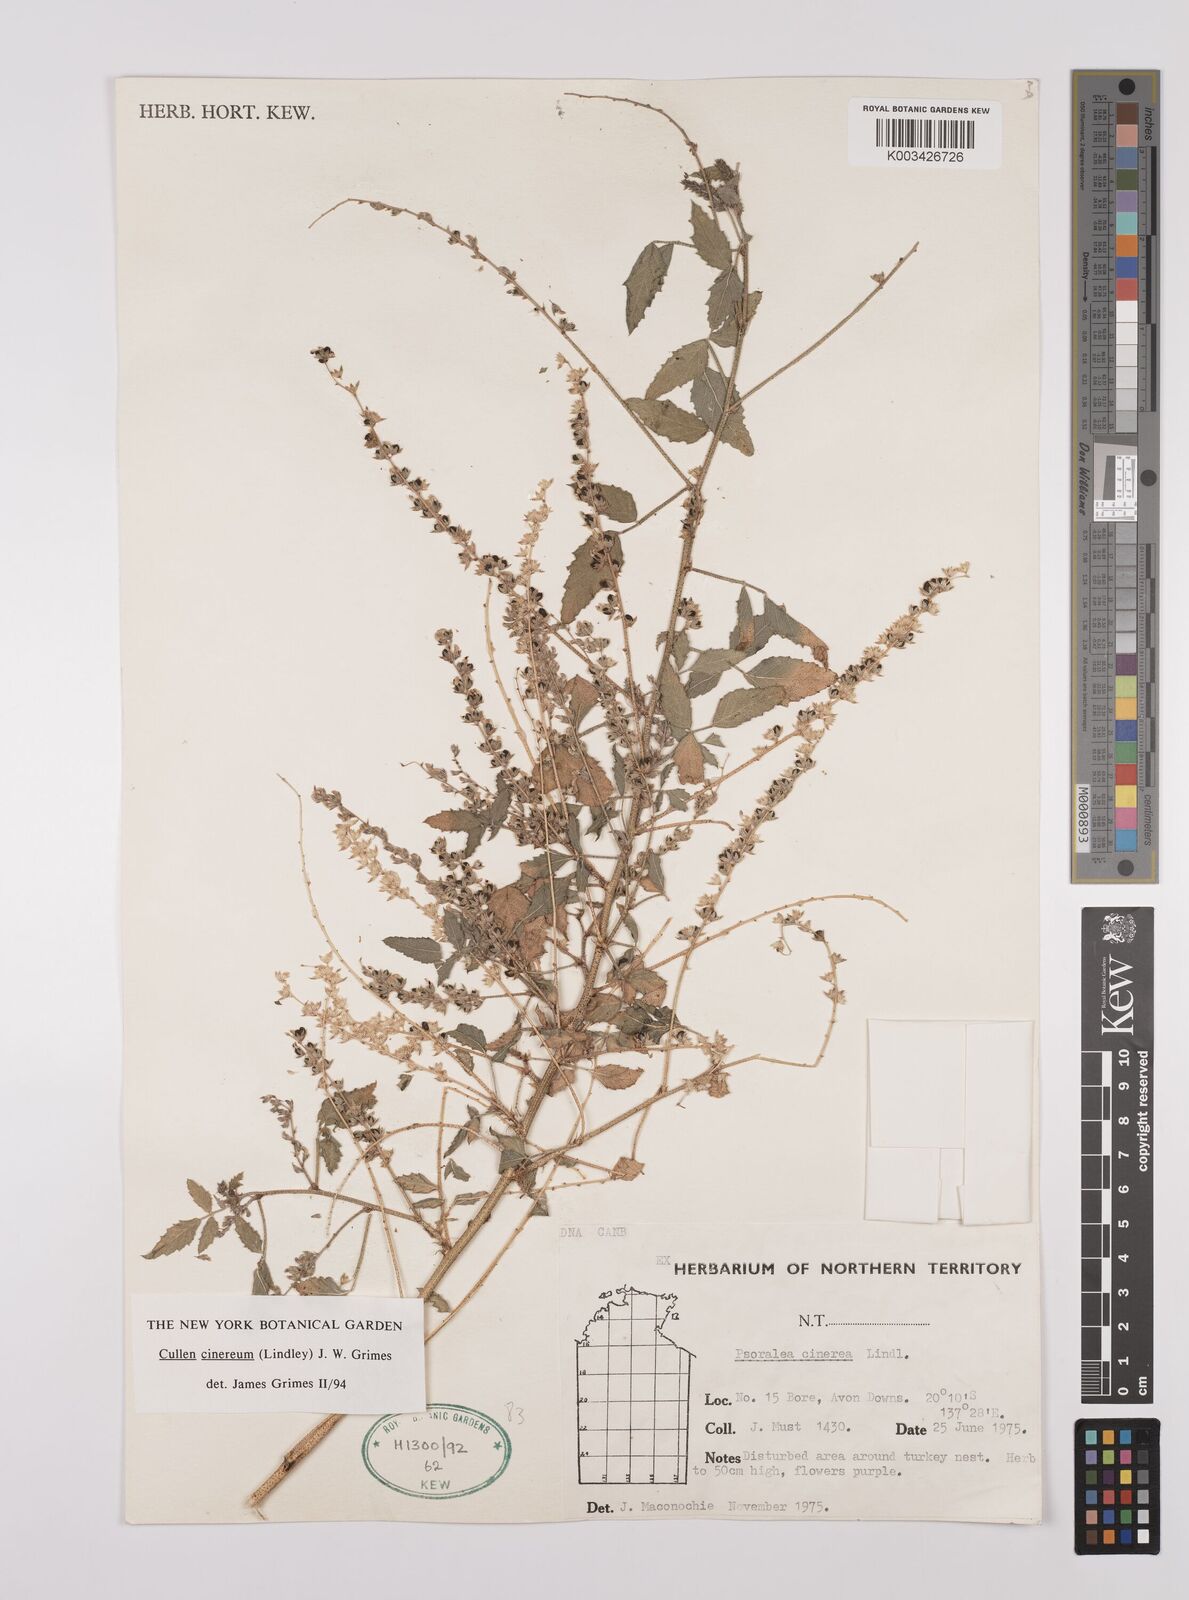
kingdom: Plantae
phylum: Tracheophyta
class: Magnoliopsida
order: Fabales
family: Fabaceae
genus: Cullen
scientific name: Cullen cinereum
